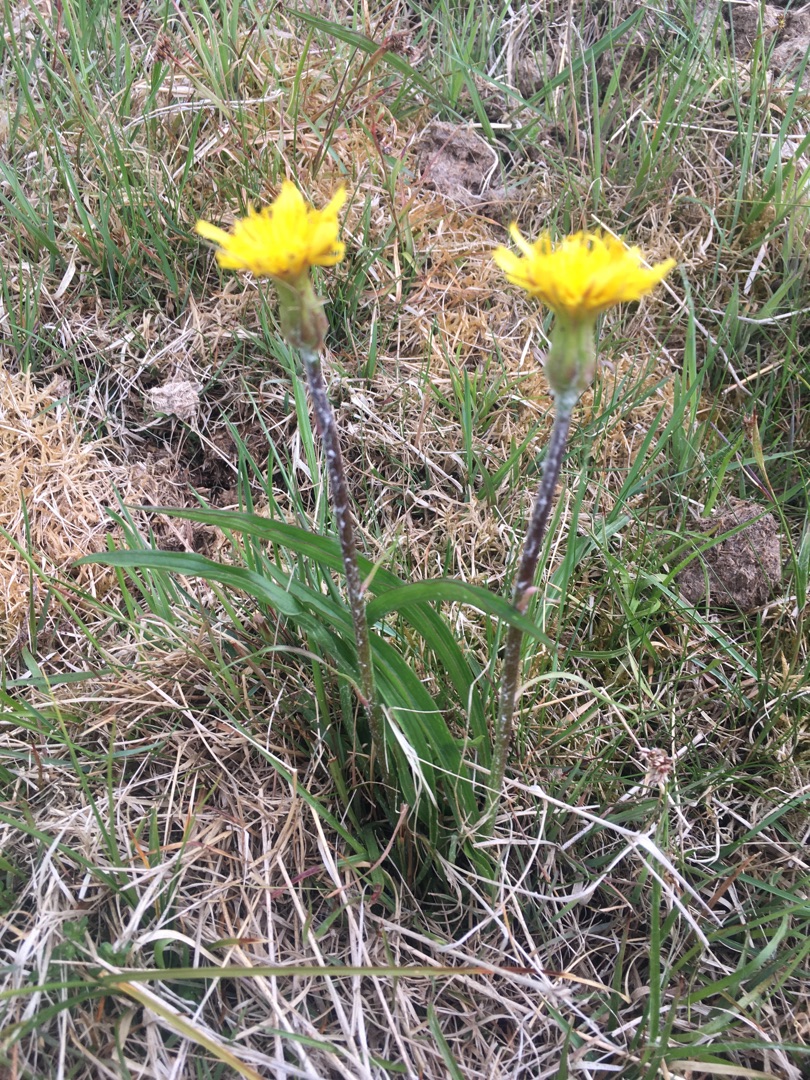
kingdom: Plantae
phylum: Tracheophyta
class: Magnoliopsida
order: Asterales
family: Asteraceae
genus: Scorzonera
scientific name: Scorzonera humilis
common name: Lav skorsoner
